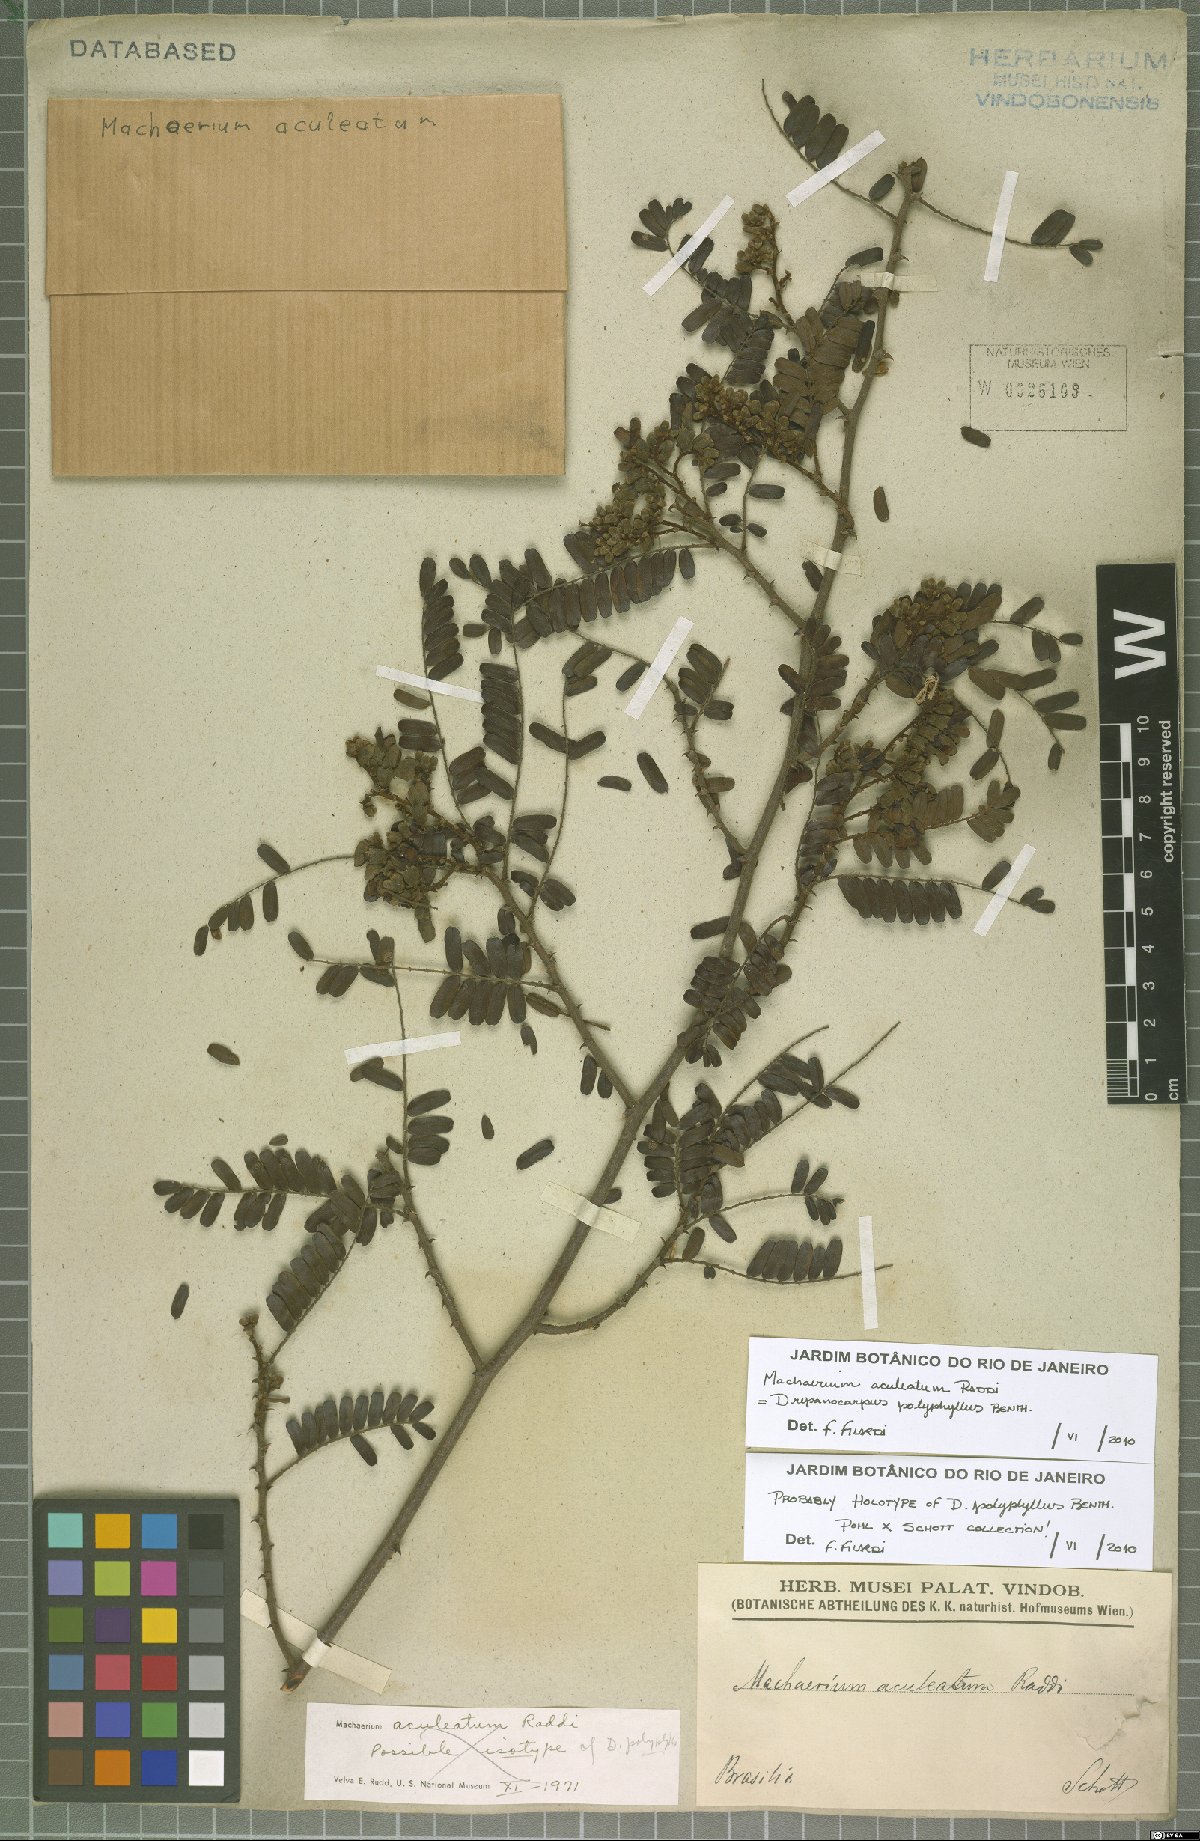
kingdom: Plantae
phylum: Tracheophyta
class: Magnoliopsida
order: Fabales
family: Fabaceae
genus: Machaerium
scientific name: Machaerium aculeatum
